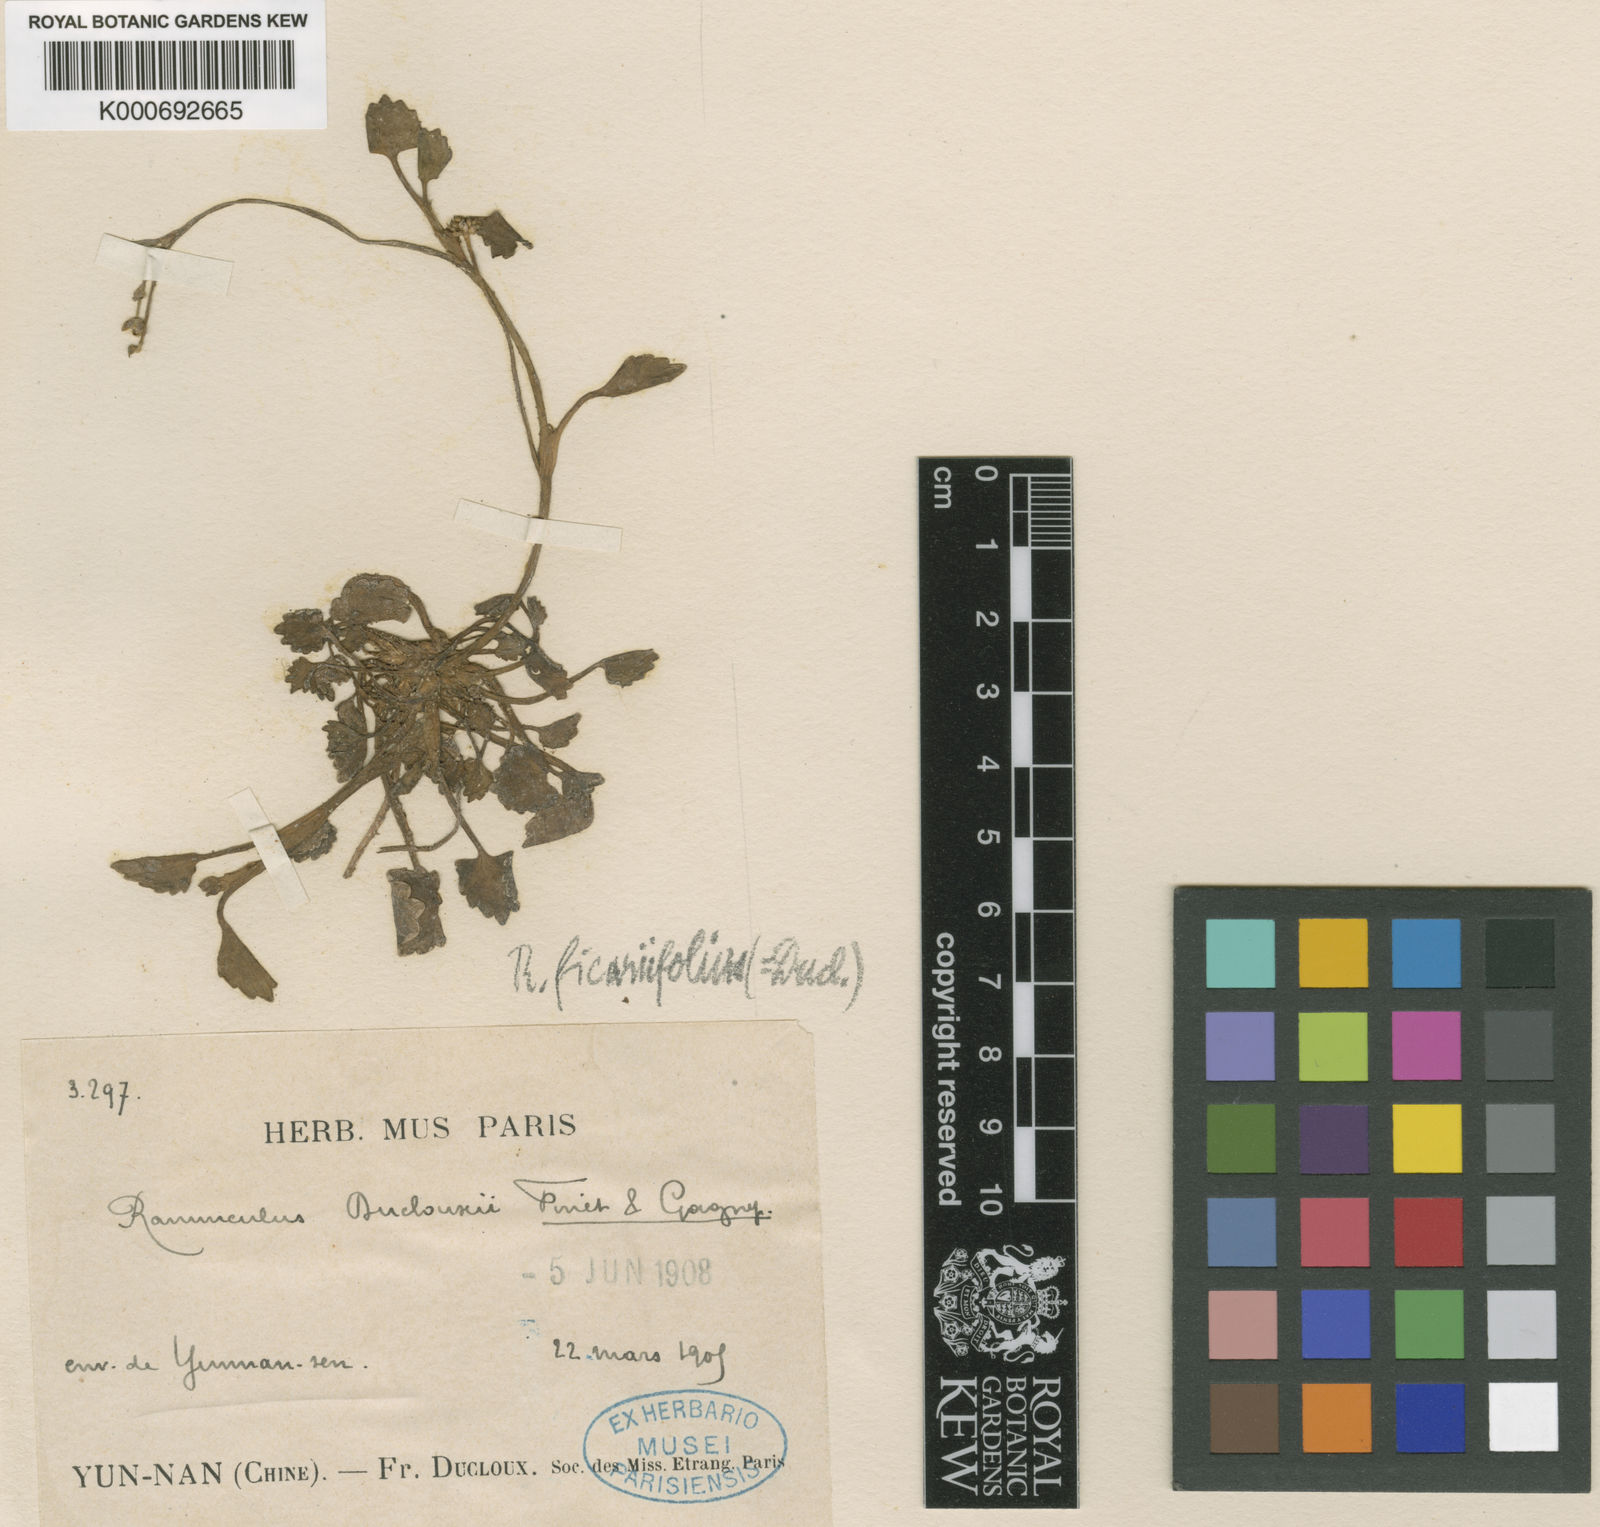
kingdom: Plantae
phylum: Tracheophyta
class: Magnoliopsida
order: Ranunculales
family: Ranunculaceae
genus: Ranunculus
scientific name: Ranunculus microphyllus
